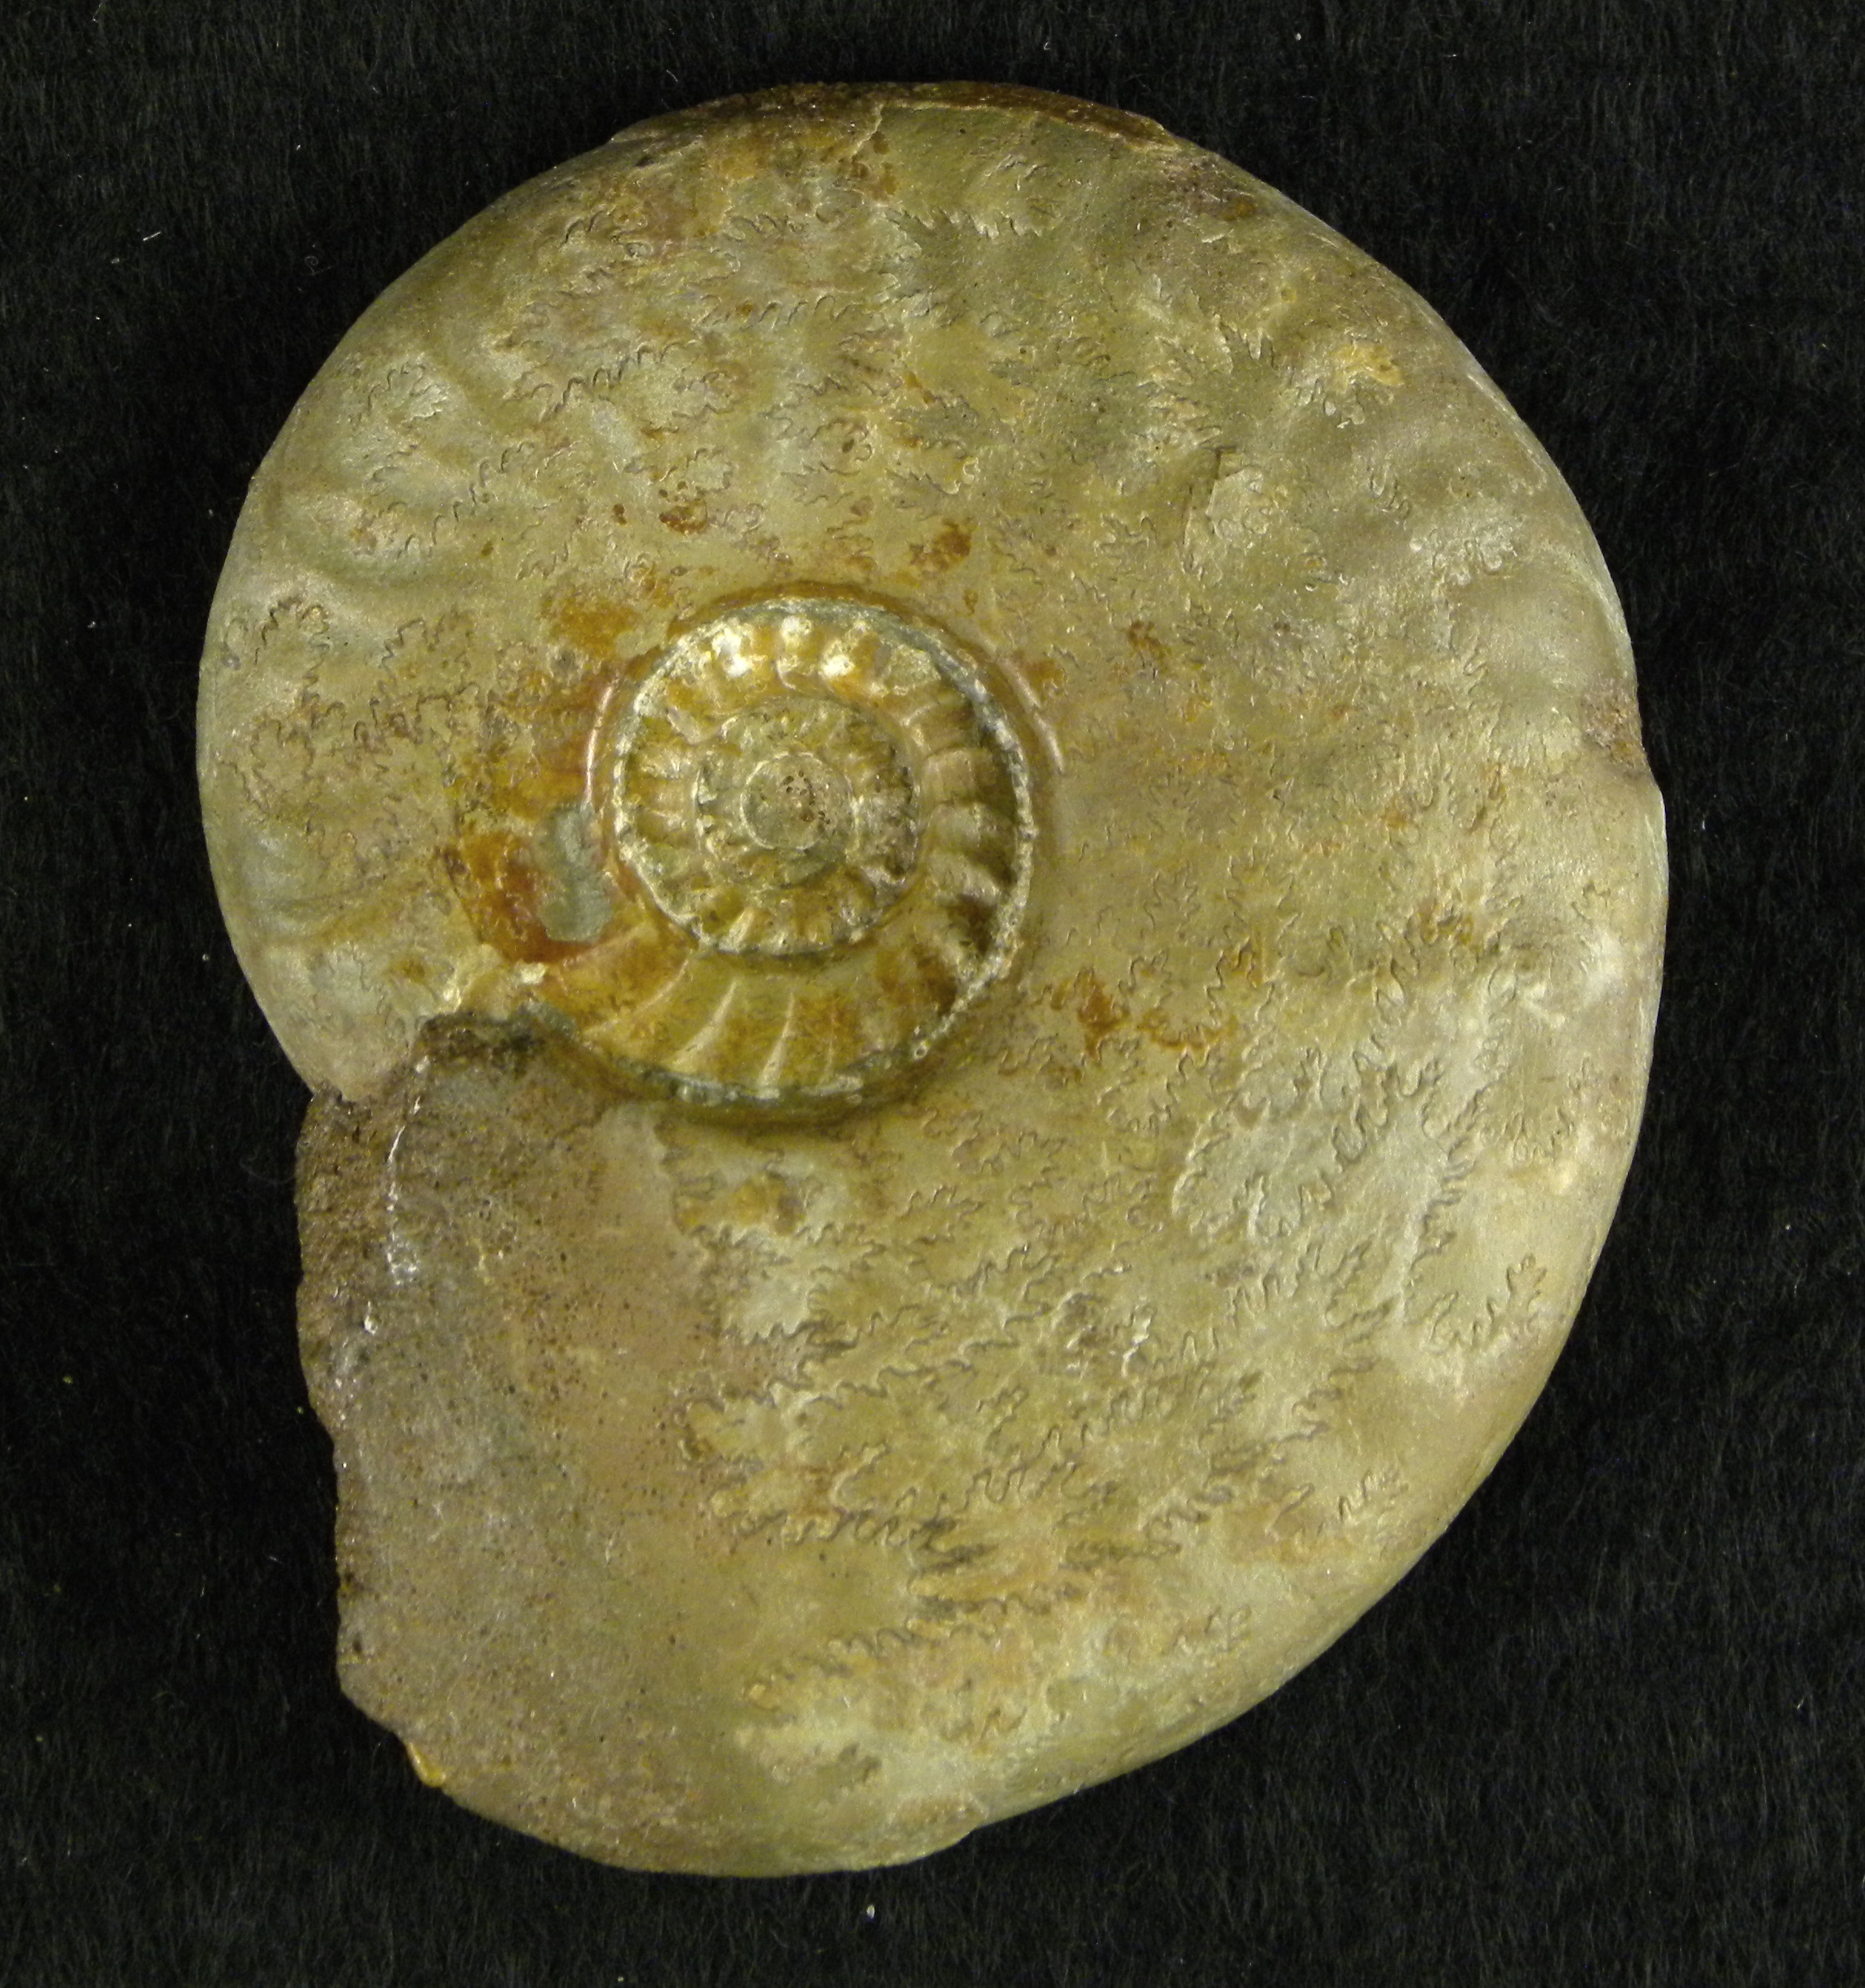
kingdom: Animalia
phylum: Mollusca
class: Cephalopoda
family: Graphoceratidae
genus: Ludwigia
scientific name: Ludwigia murchisonae
